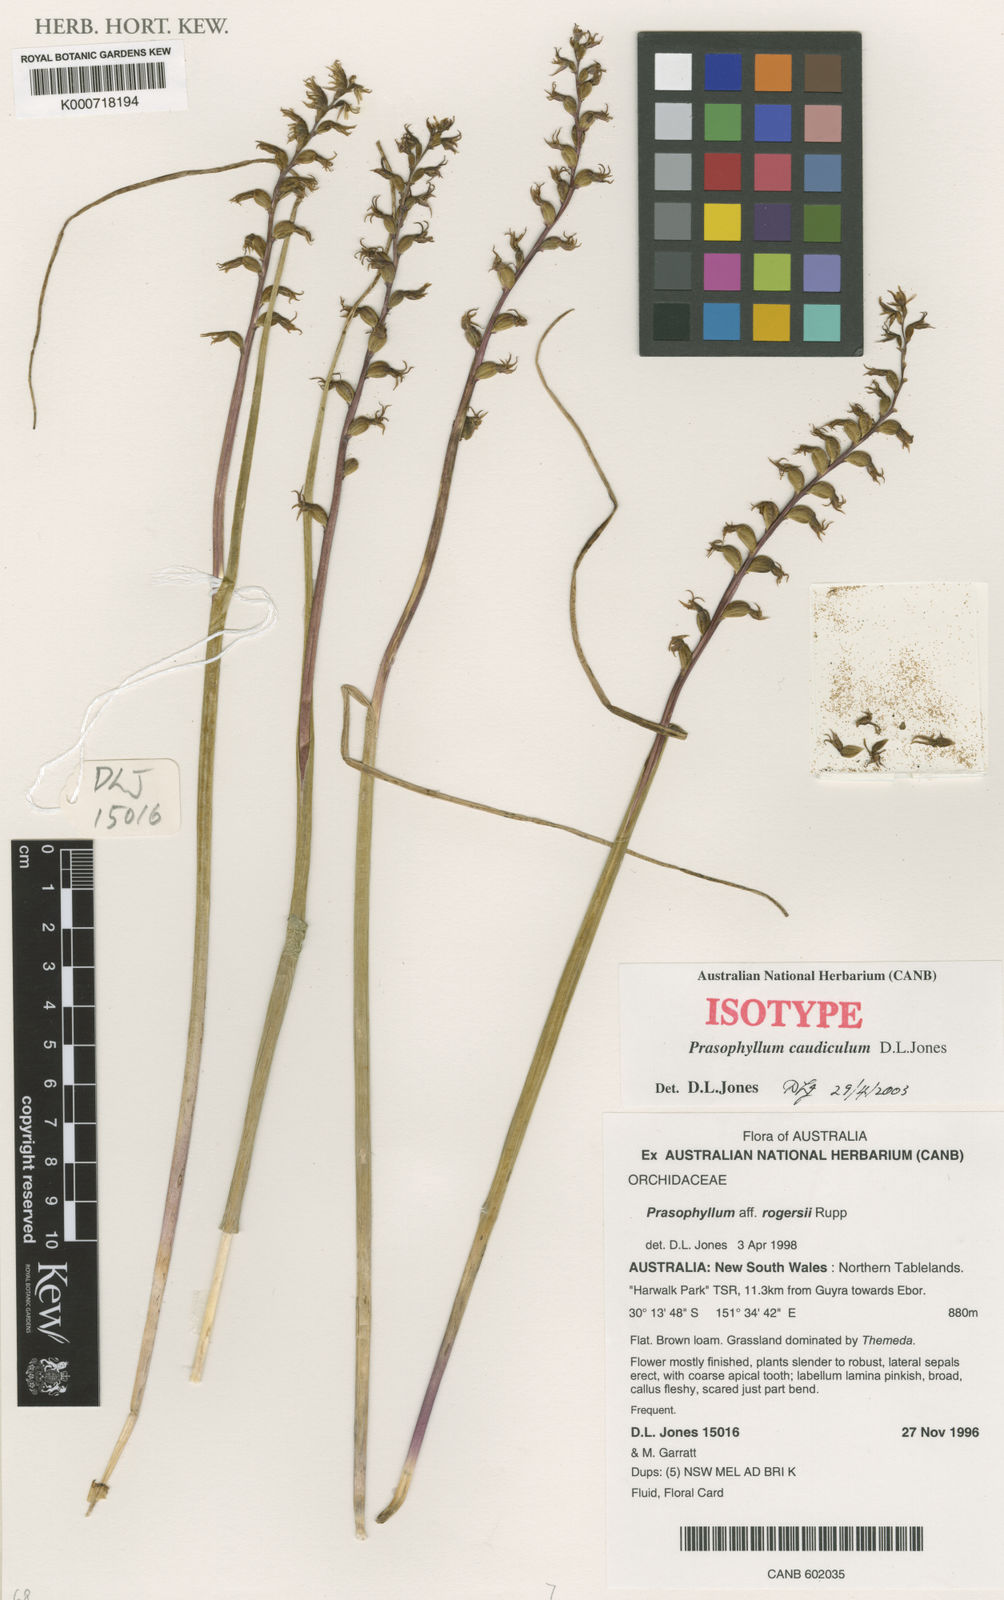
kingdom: Plantae
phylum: Tracheophyta
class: Liliopsida
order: Asparagales
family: Orchidaceae
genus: Prasophyllum
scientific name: Prasophyllum caudiculum
